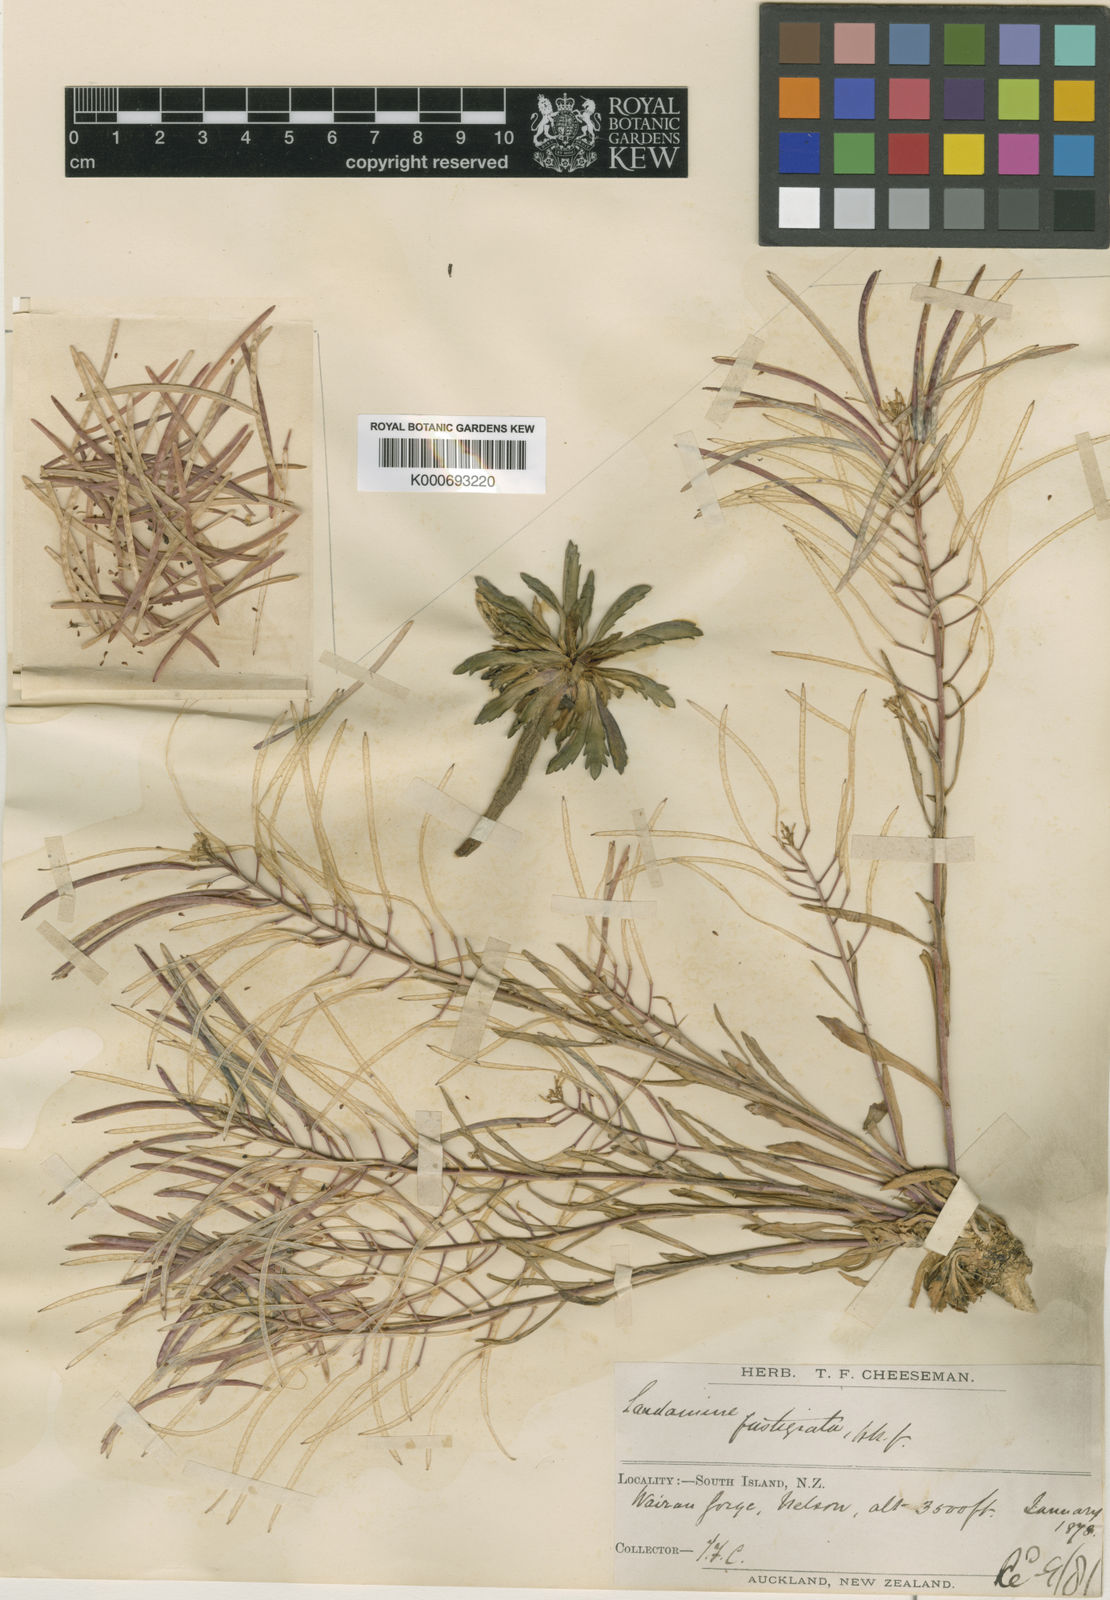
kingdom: Plantae
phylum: Tracheophyta
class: Magnoliopsida
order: Brassicales
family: Brassicaceae
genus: Pachycladon
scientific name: Pachycladon fastigiatum
